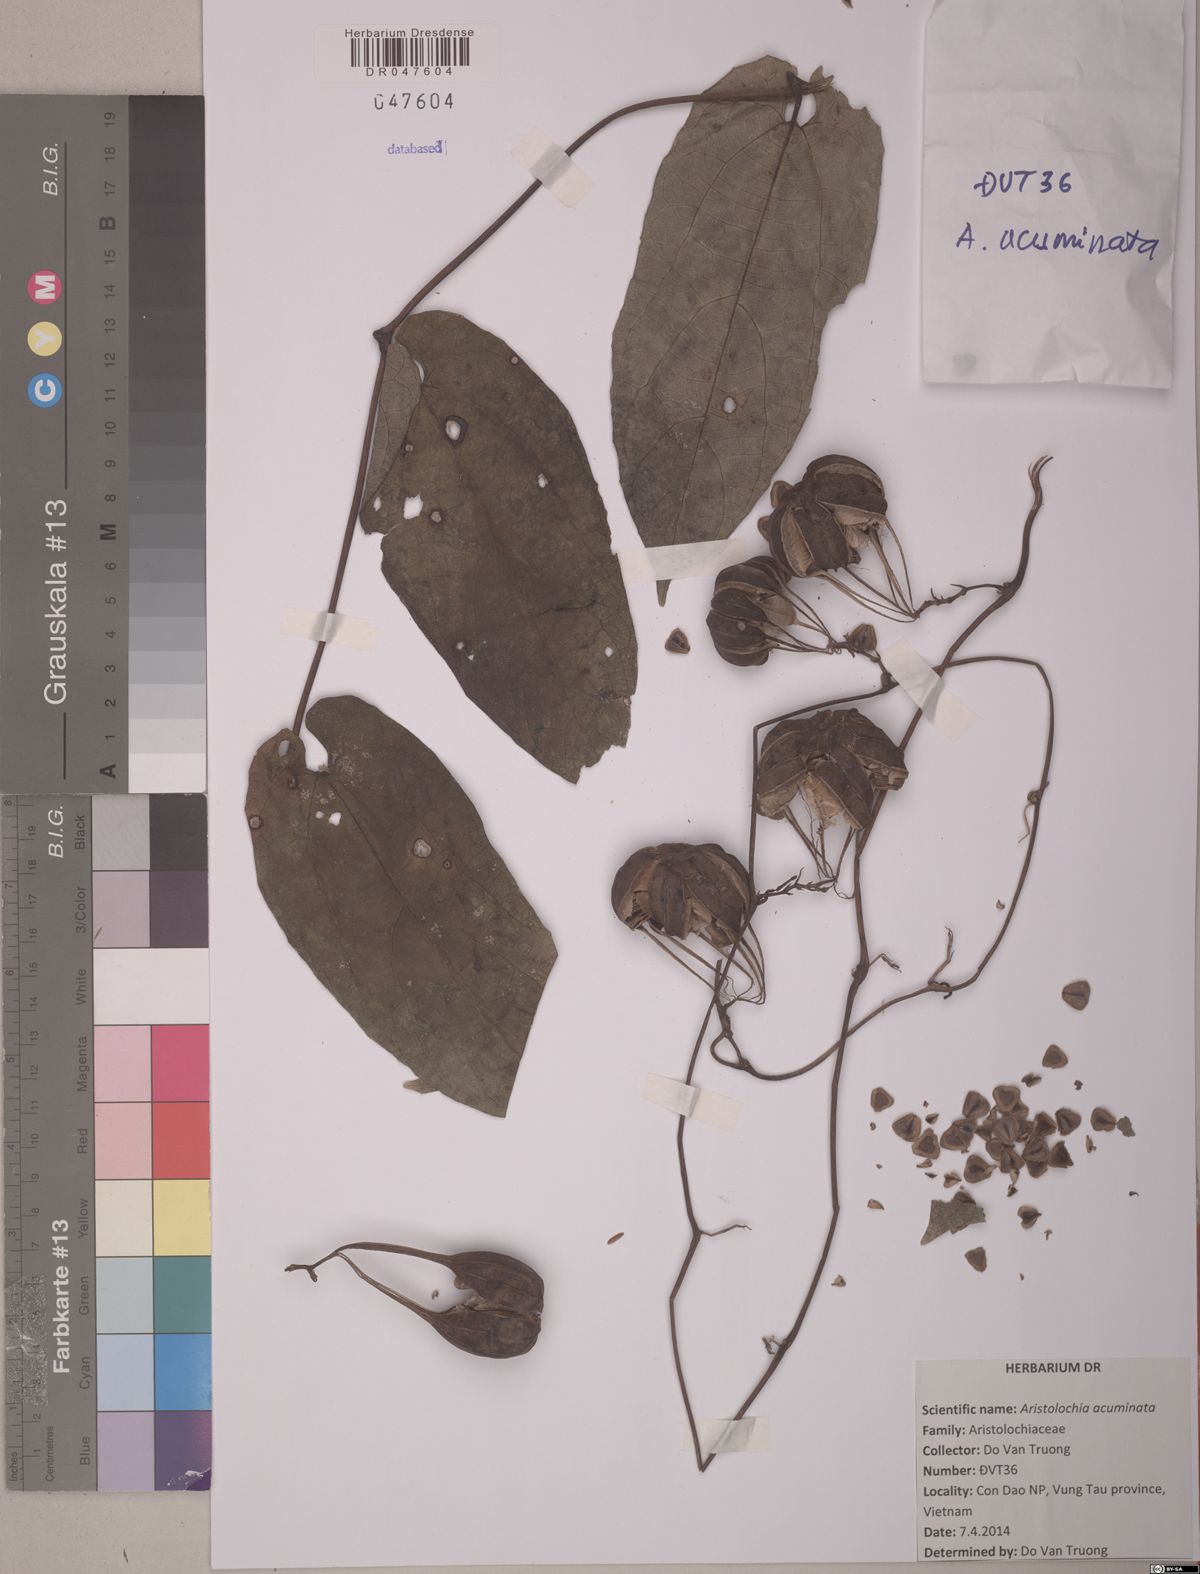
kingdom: Plantae
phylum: Tracheophyta
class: Magnoliopsida
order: Piperales
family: Aristolochiaceae
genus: Aristolochia
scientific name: Aristolochia acuminata
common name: Indian birthwort
